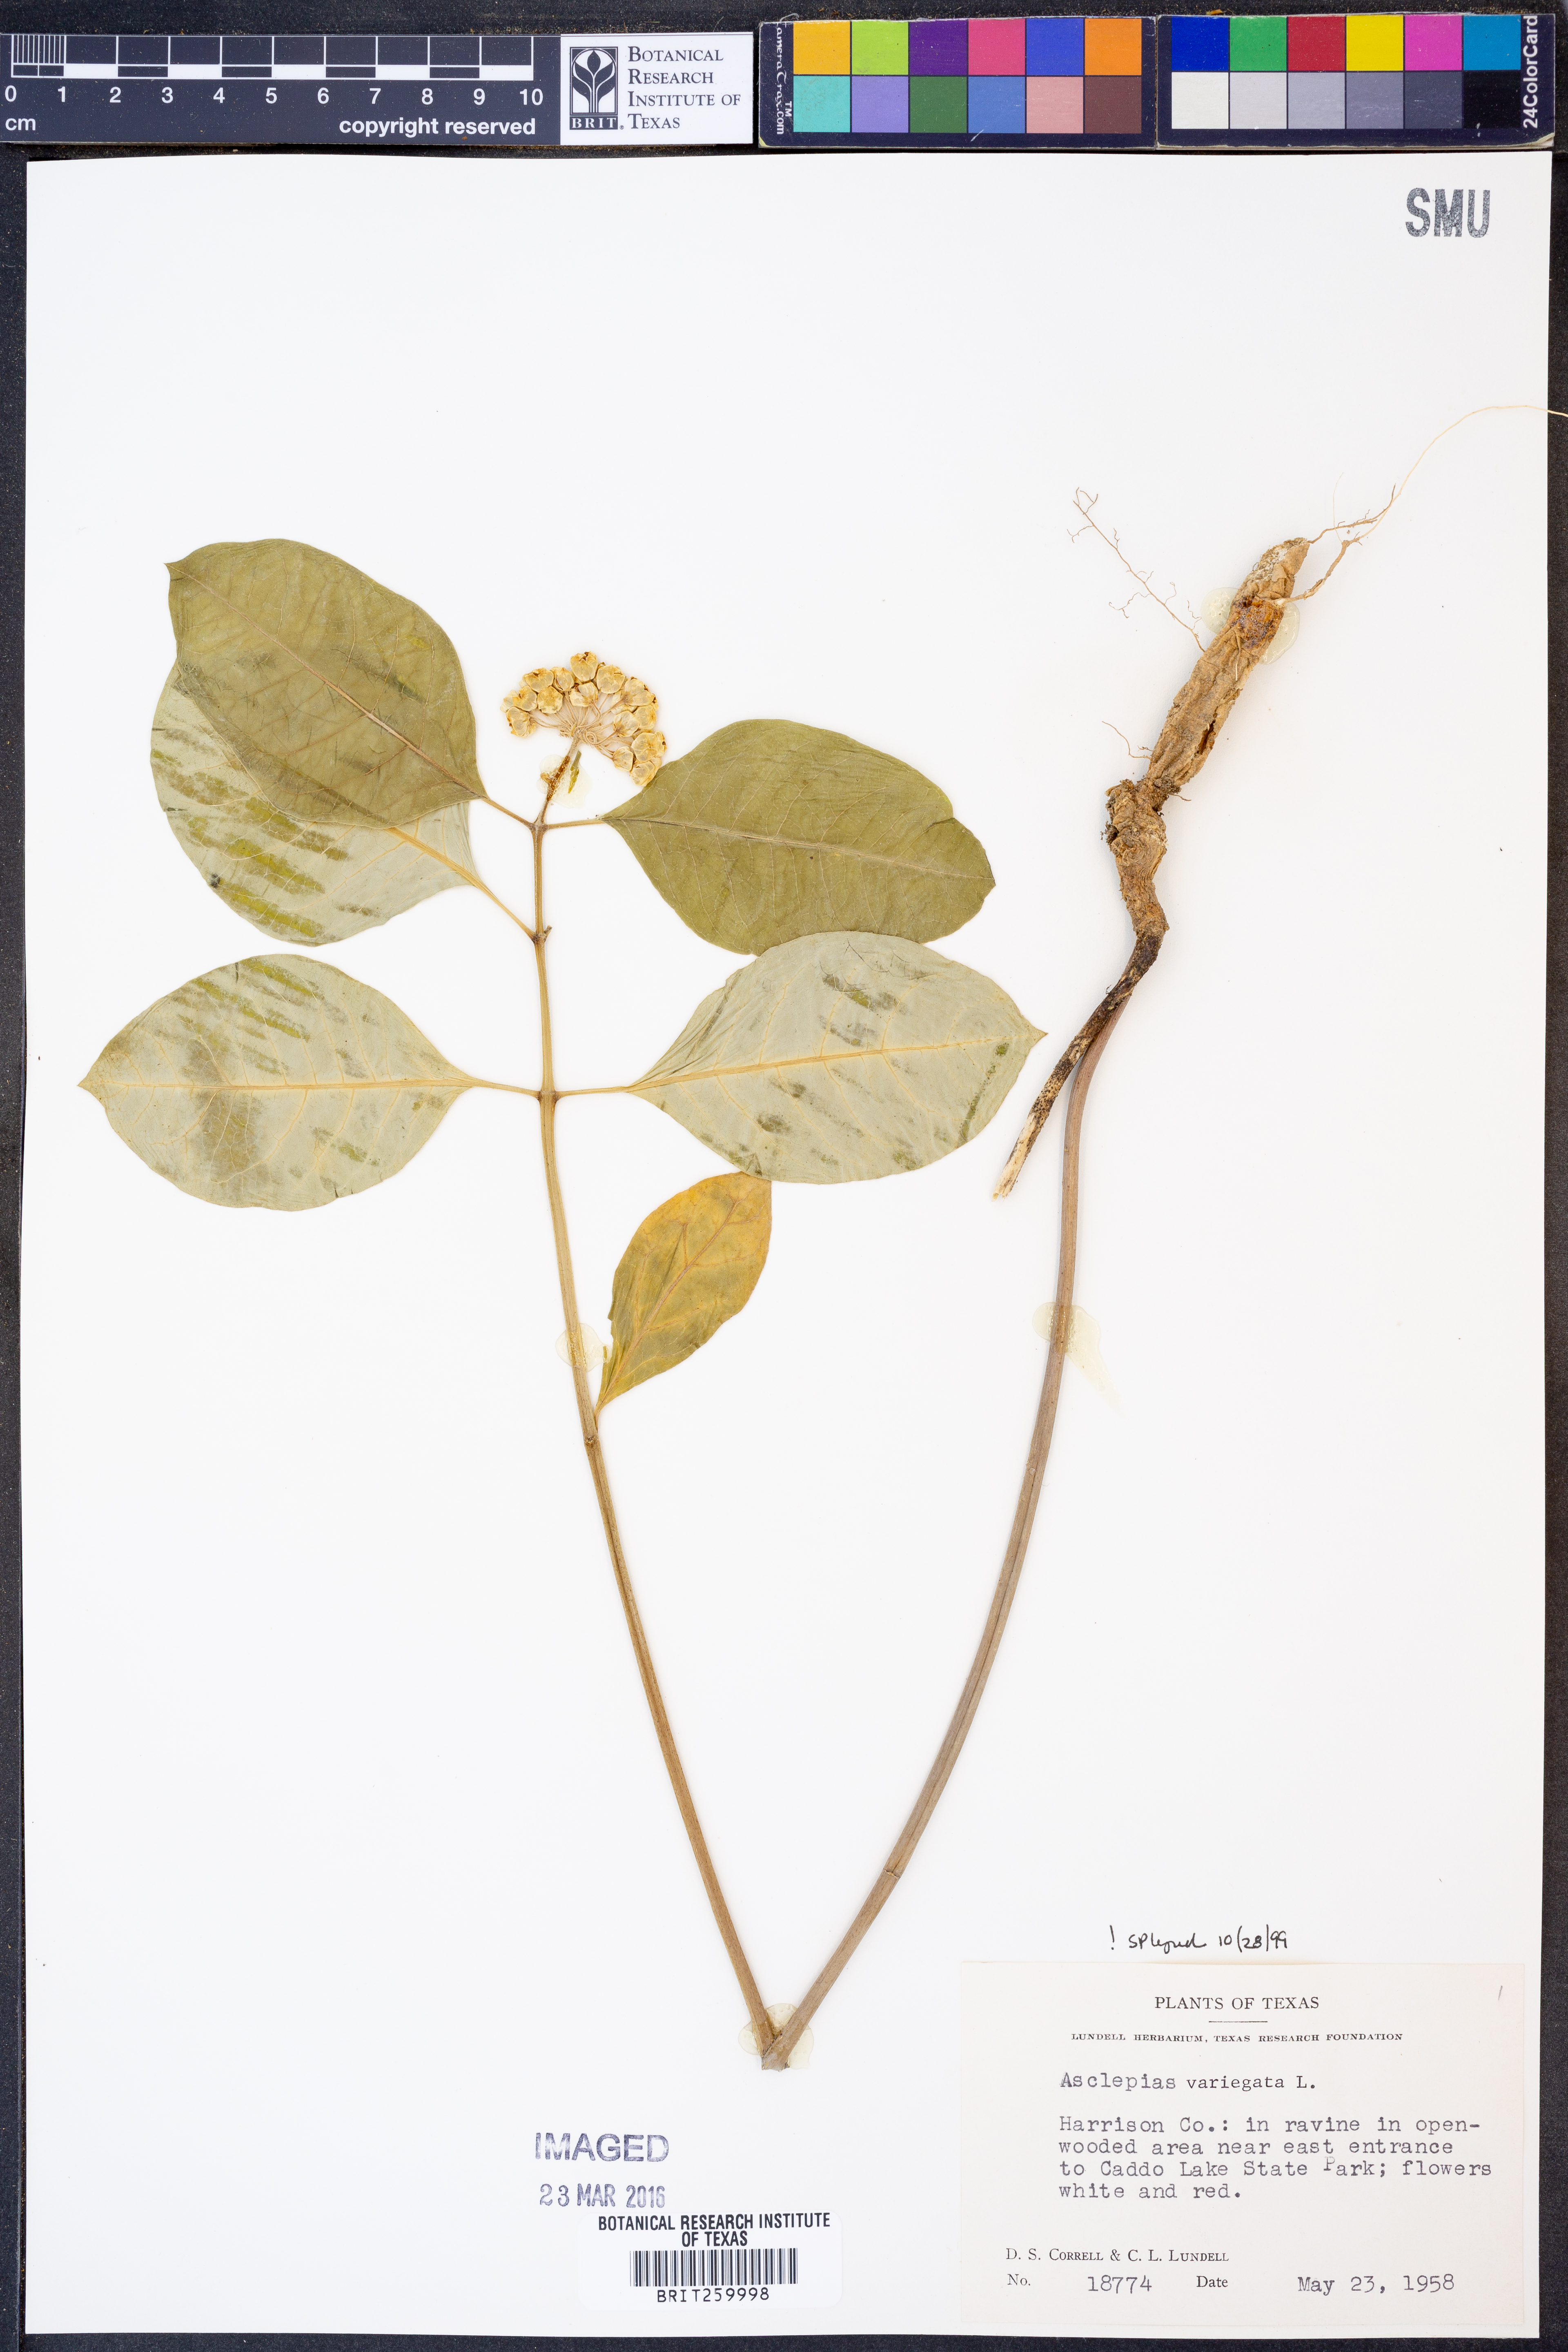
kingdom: Plantae
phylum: Tracheophyta
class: Magnoliopsida
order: Gentianales
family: Apocynaceae
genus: Asclepias
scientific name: Asclepias variegata
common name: Variegated milkweed
